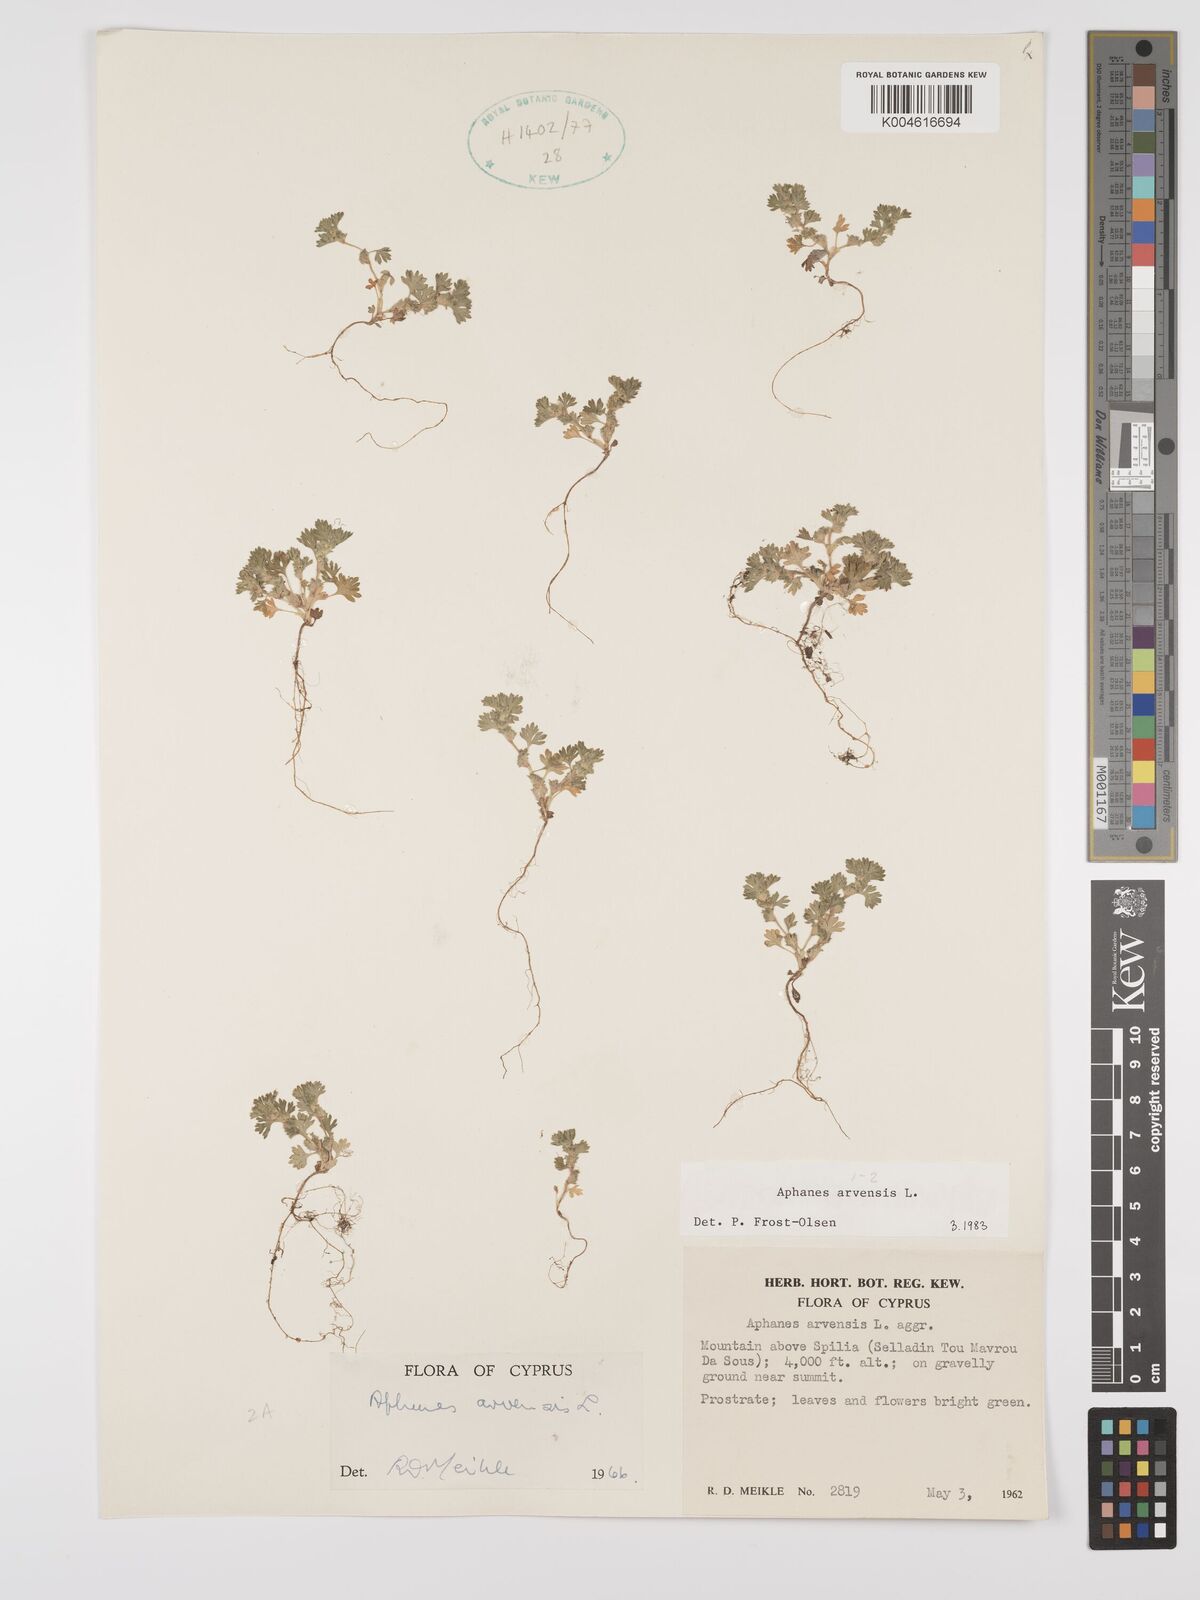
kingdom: Plantae
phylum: Tracheophyta
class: Magnoliopsida
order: Rosales
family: Rosaceae
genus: Aphanes
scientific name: Aphanes arvensis
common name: Parsley-piert
